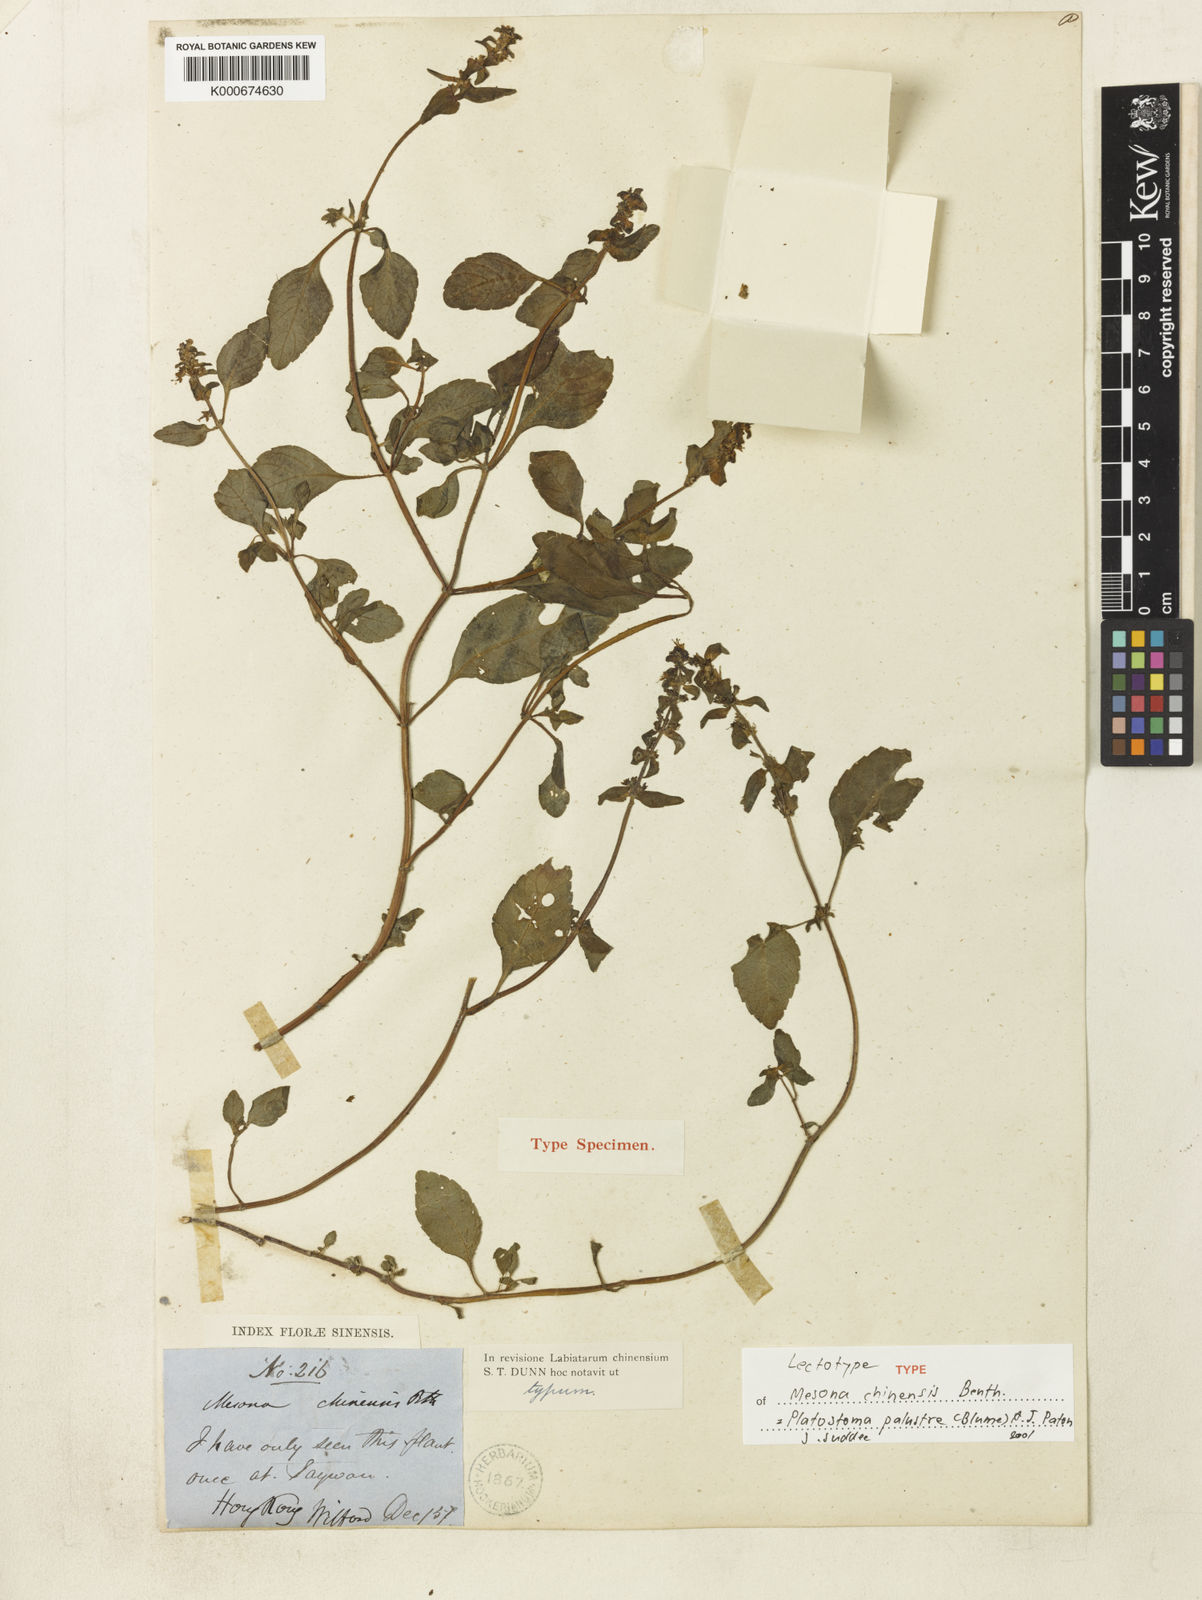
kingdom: Plantae
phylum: Tracheophyta
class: Magnoliopsida
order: Lamiales
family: Lamiaceae
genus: Platostoma
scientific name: Platostoma palustre
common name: Black cincau
